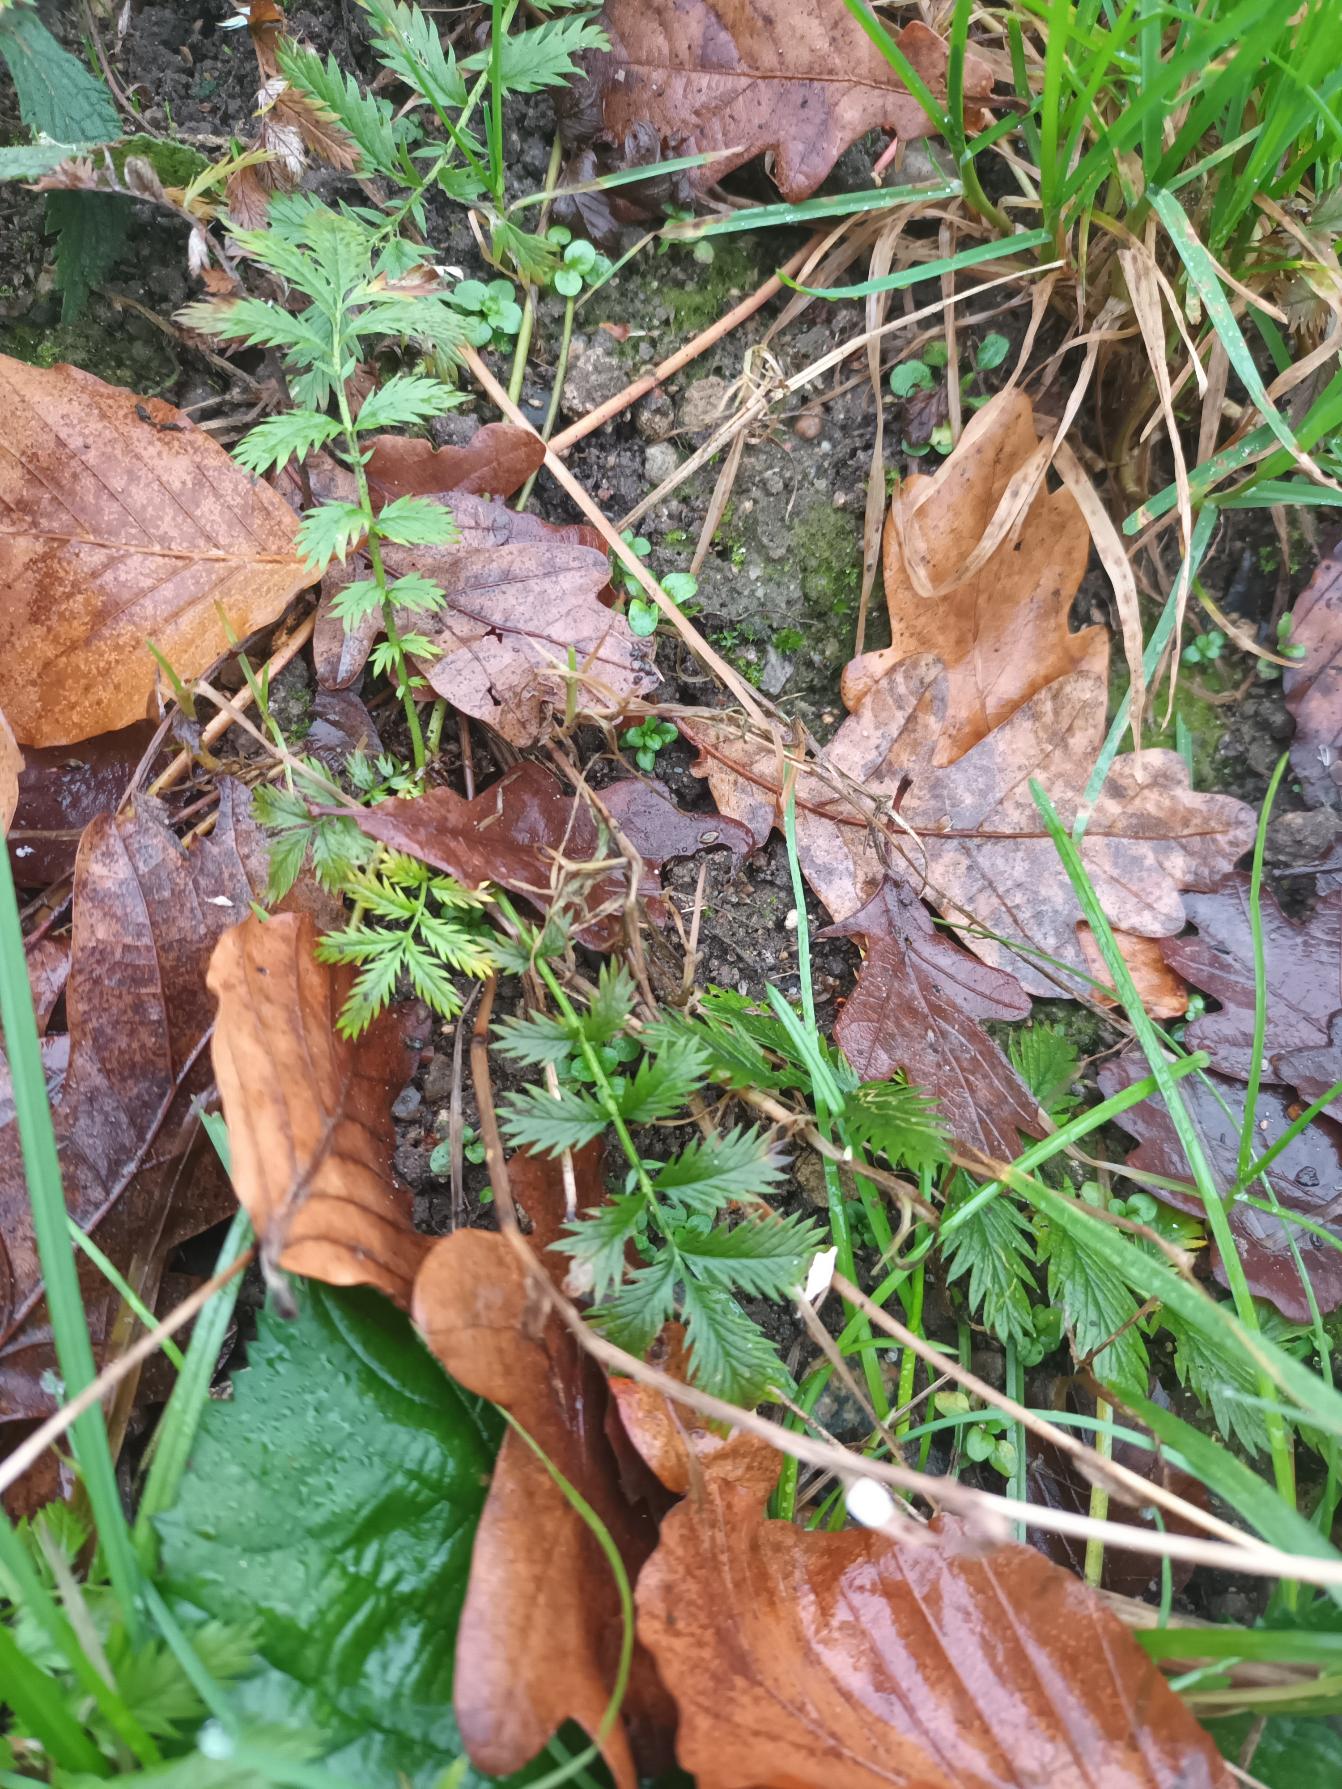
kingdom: Plantae
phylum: Tracheophyta
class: Magnoliopsida
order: Rosales
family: Rosaceae
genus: Argentina
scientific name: Argentina anserina
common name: Gåsepotentil
